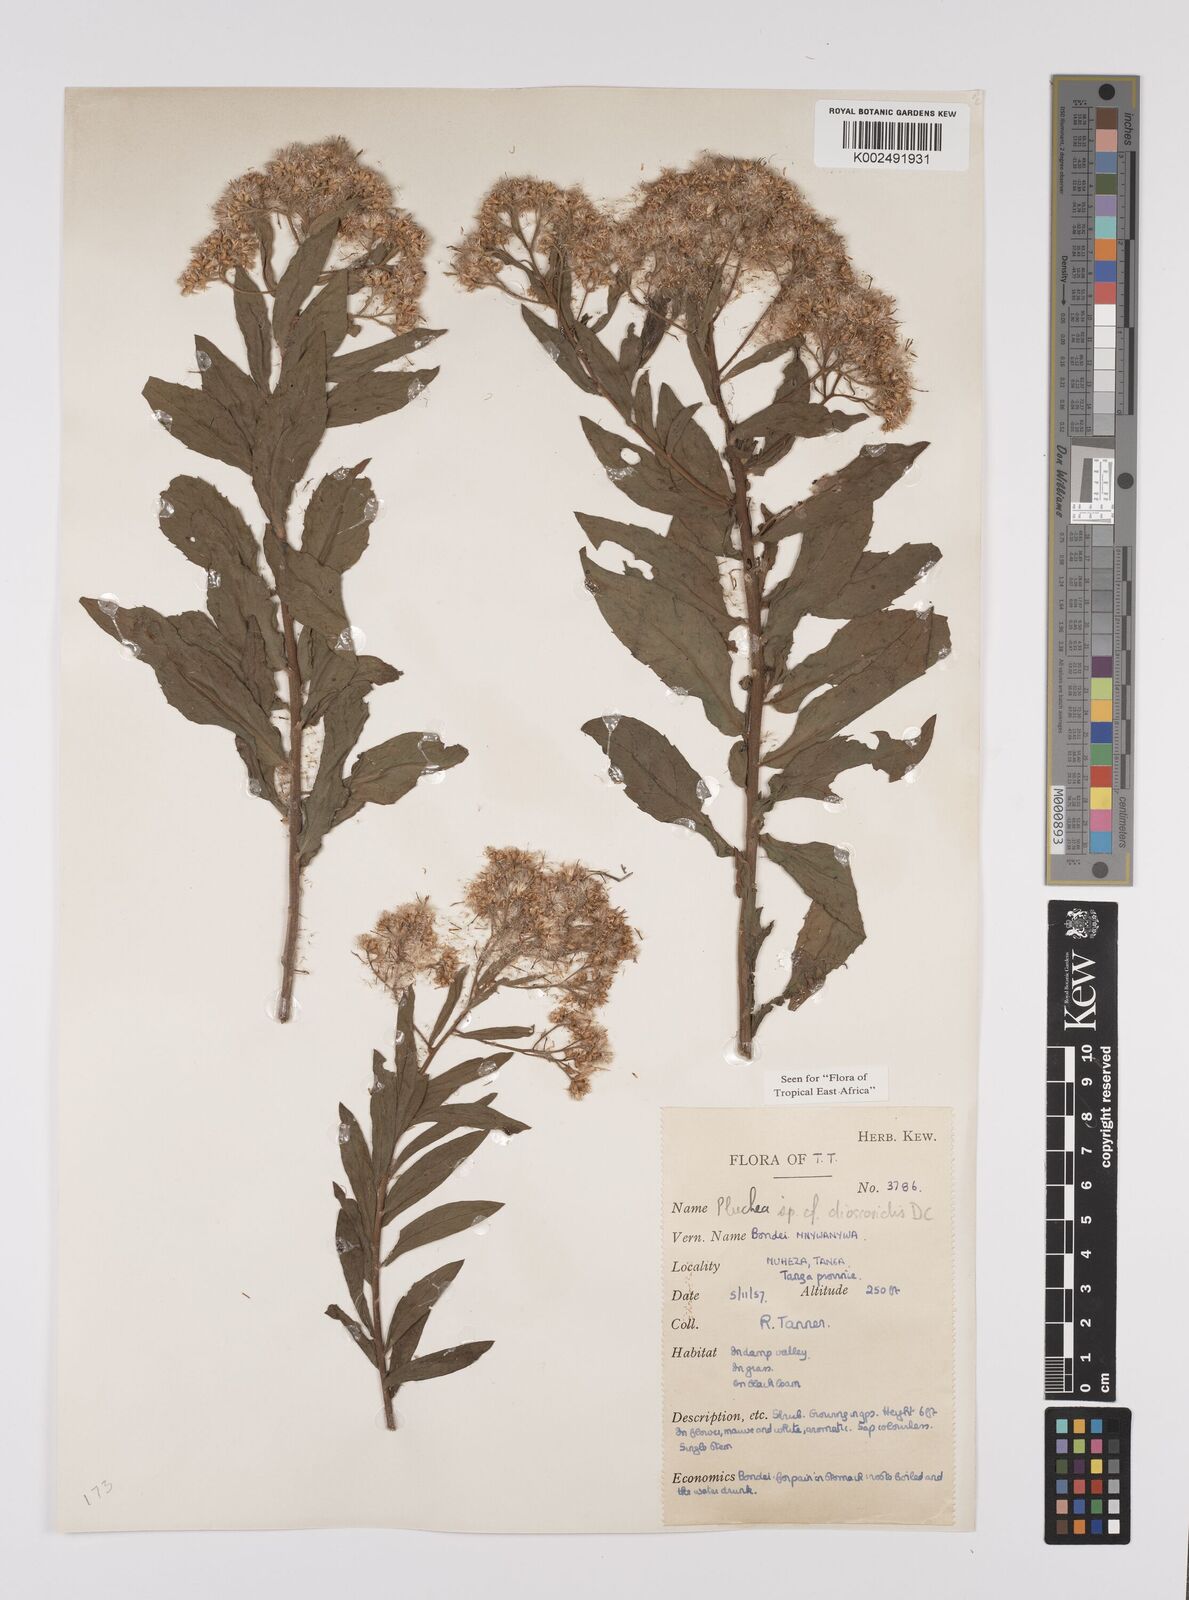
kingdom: Plantae
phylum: Tracheophyta
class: Magnoliopsida
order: Asterales
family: Asteraceae
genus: Pluchea
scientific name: Pluchea dioscoridis
